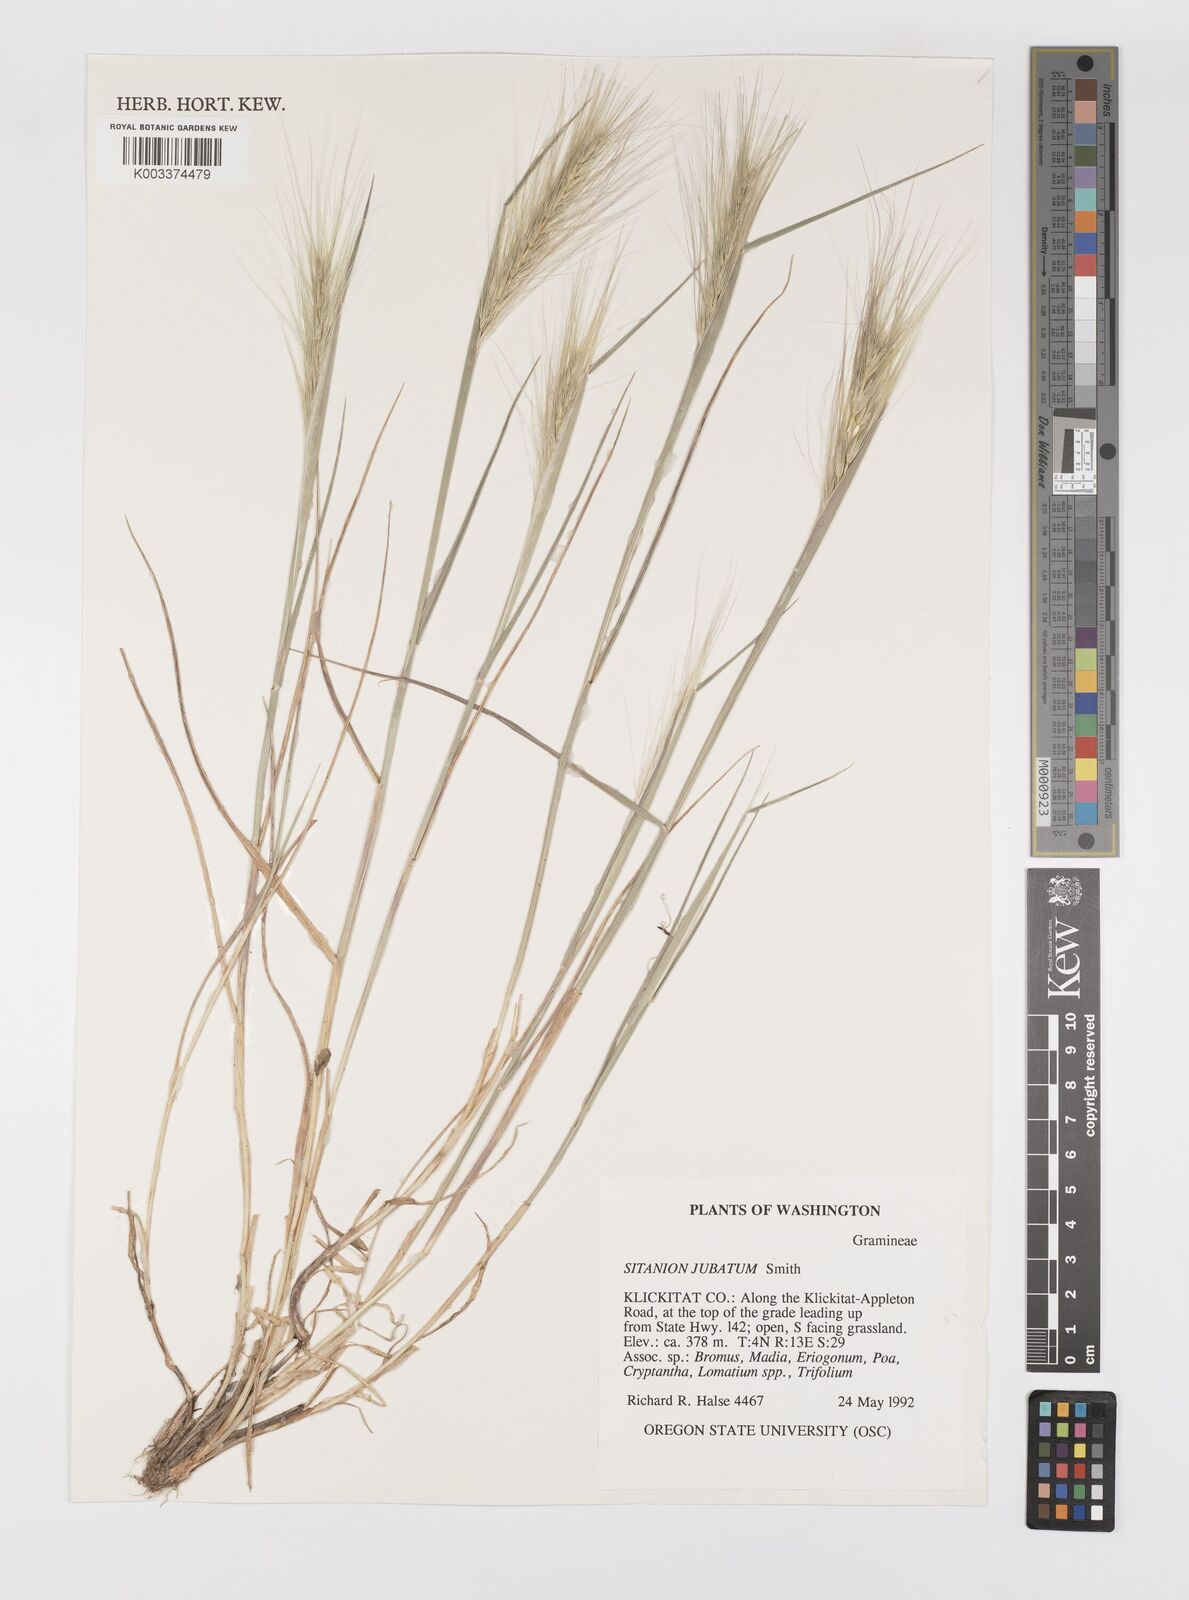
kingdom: Plantae
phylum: Tracheophyta
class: Liliopsida
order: Poales
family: Poaceae
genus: Elymus
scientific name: Elymus multisetus
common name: Big squirreltail
